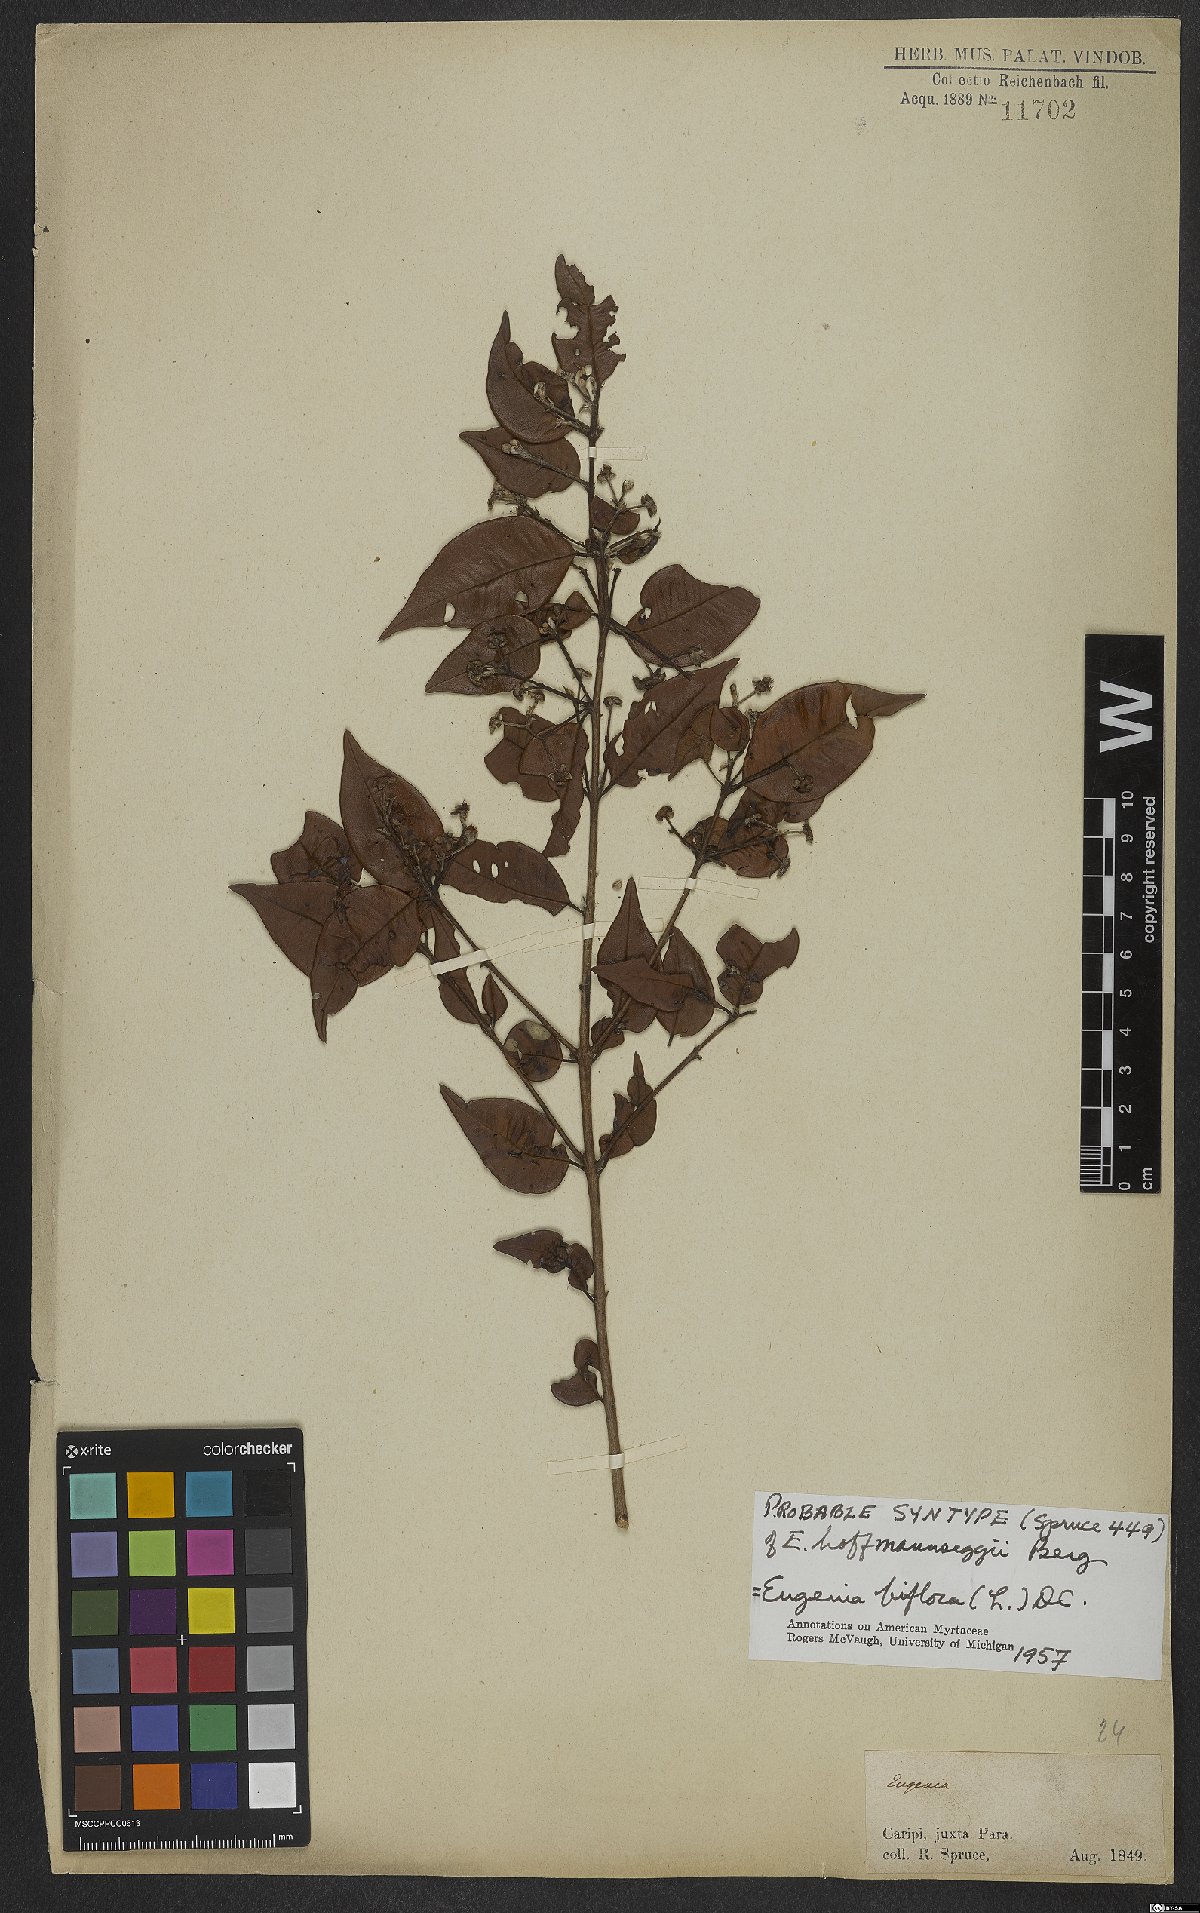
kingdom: Plantae
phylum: Tracheophyta
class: Magnoliopsida
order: Myrtales
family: Myrtaceae
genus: Eugenia
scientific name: Eugenia warmingiana
